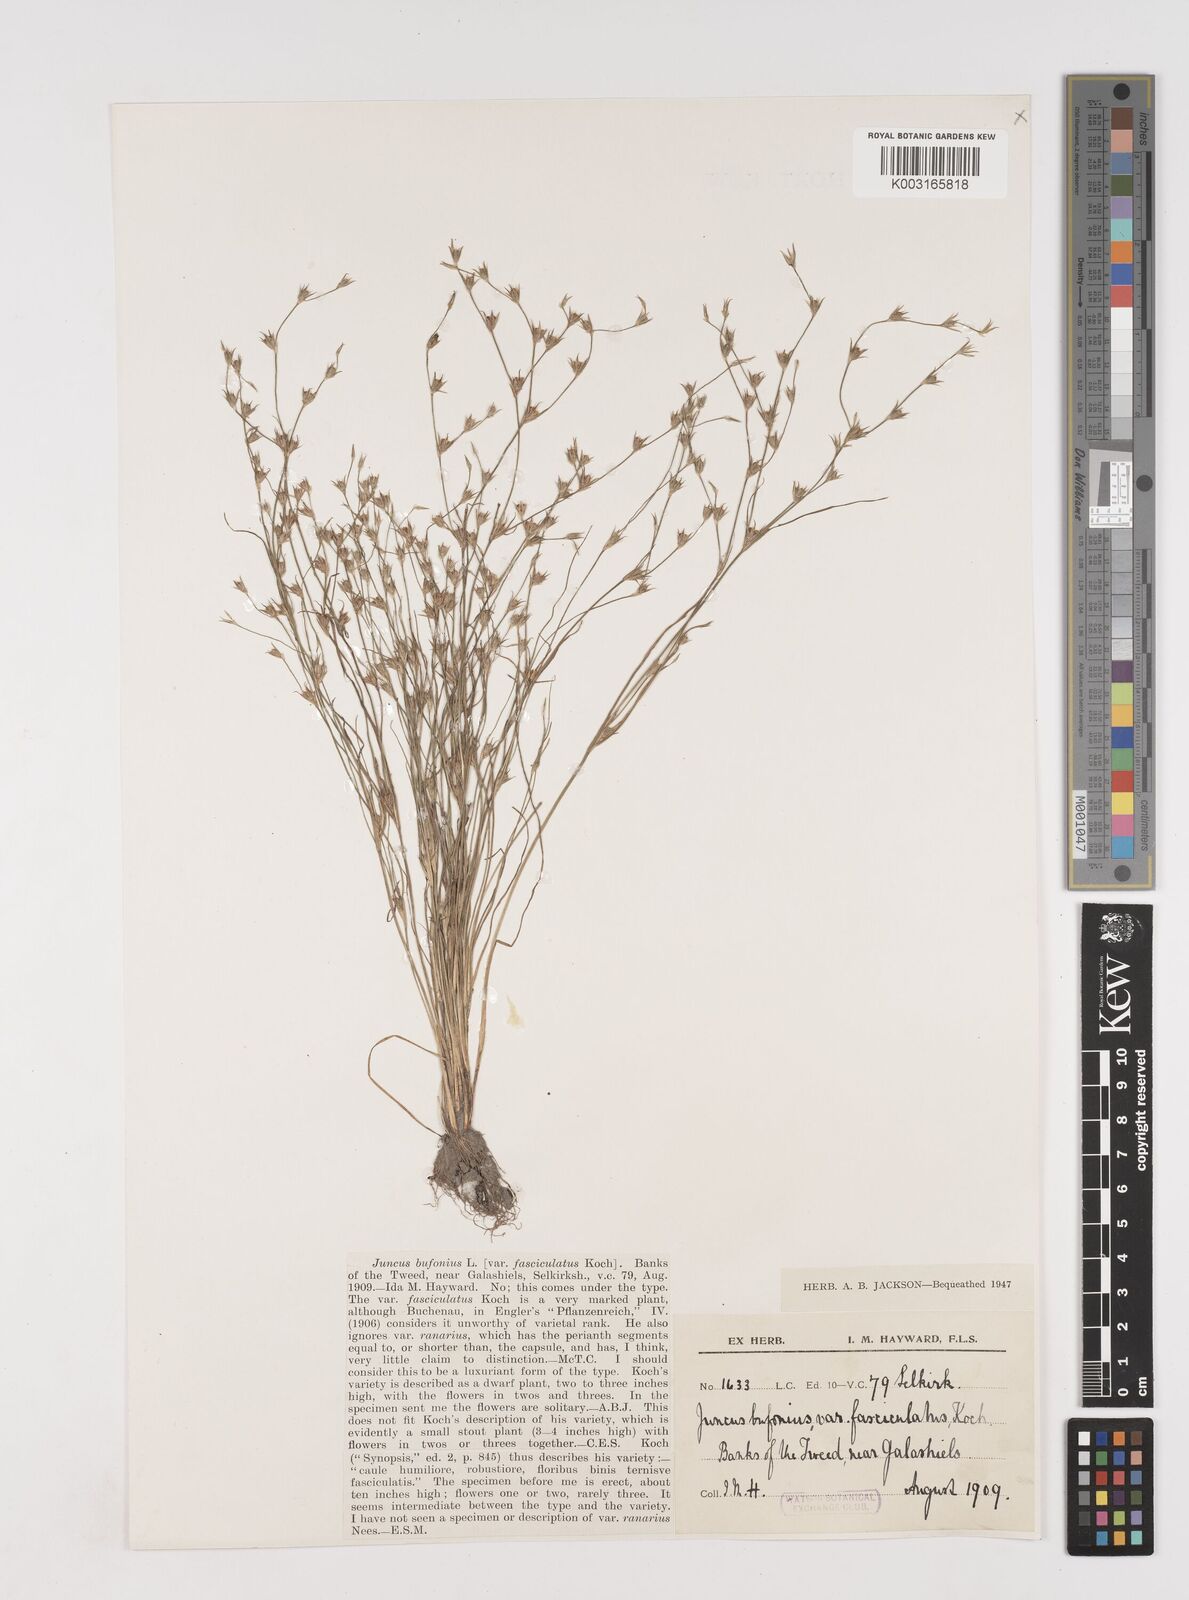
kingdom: Plantae
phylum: Tracheophyta
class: Liliopsida
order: Poales
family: Juncaceae
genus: Juncus
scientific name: Juncus bufonius
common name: Toad rush
